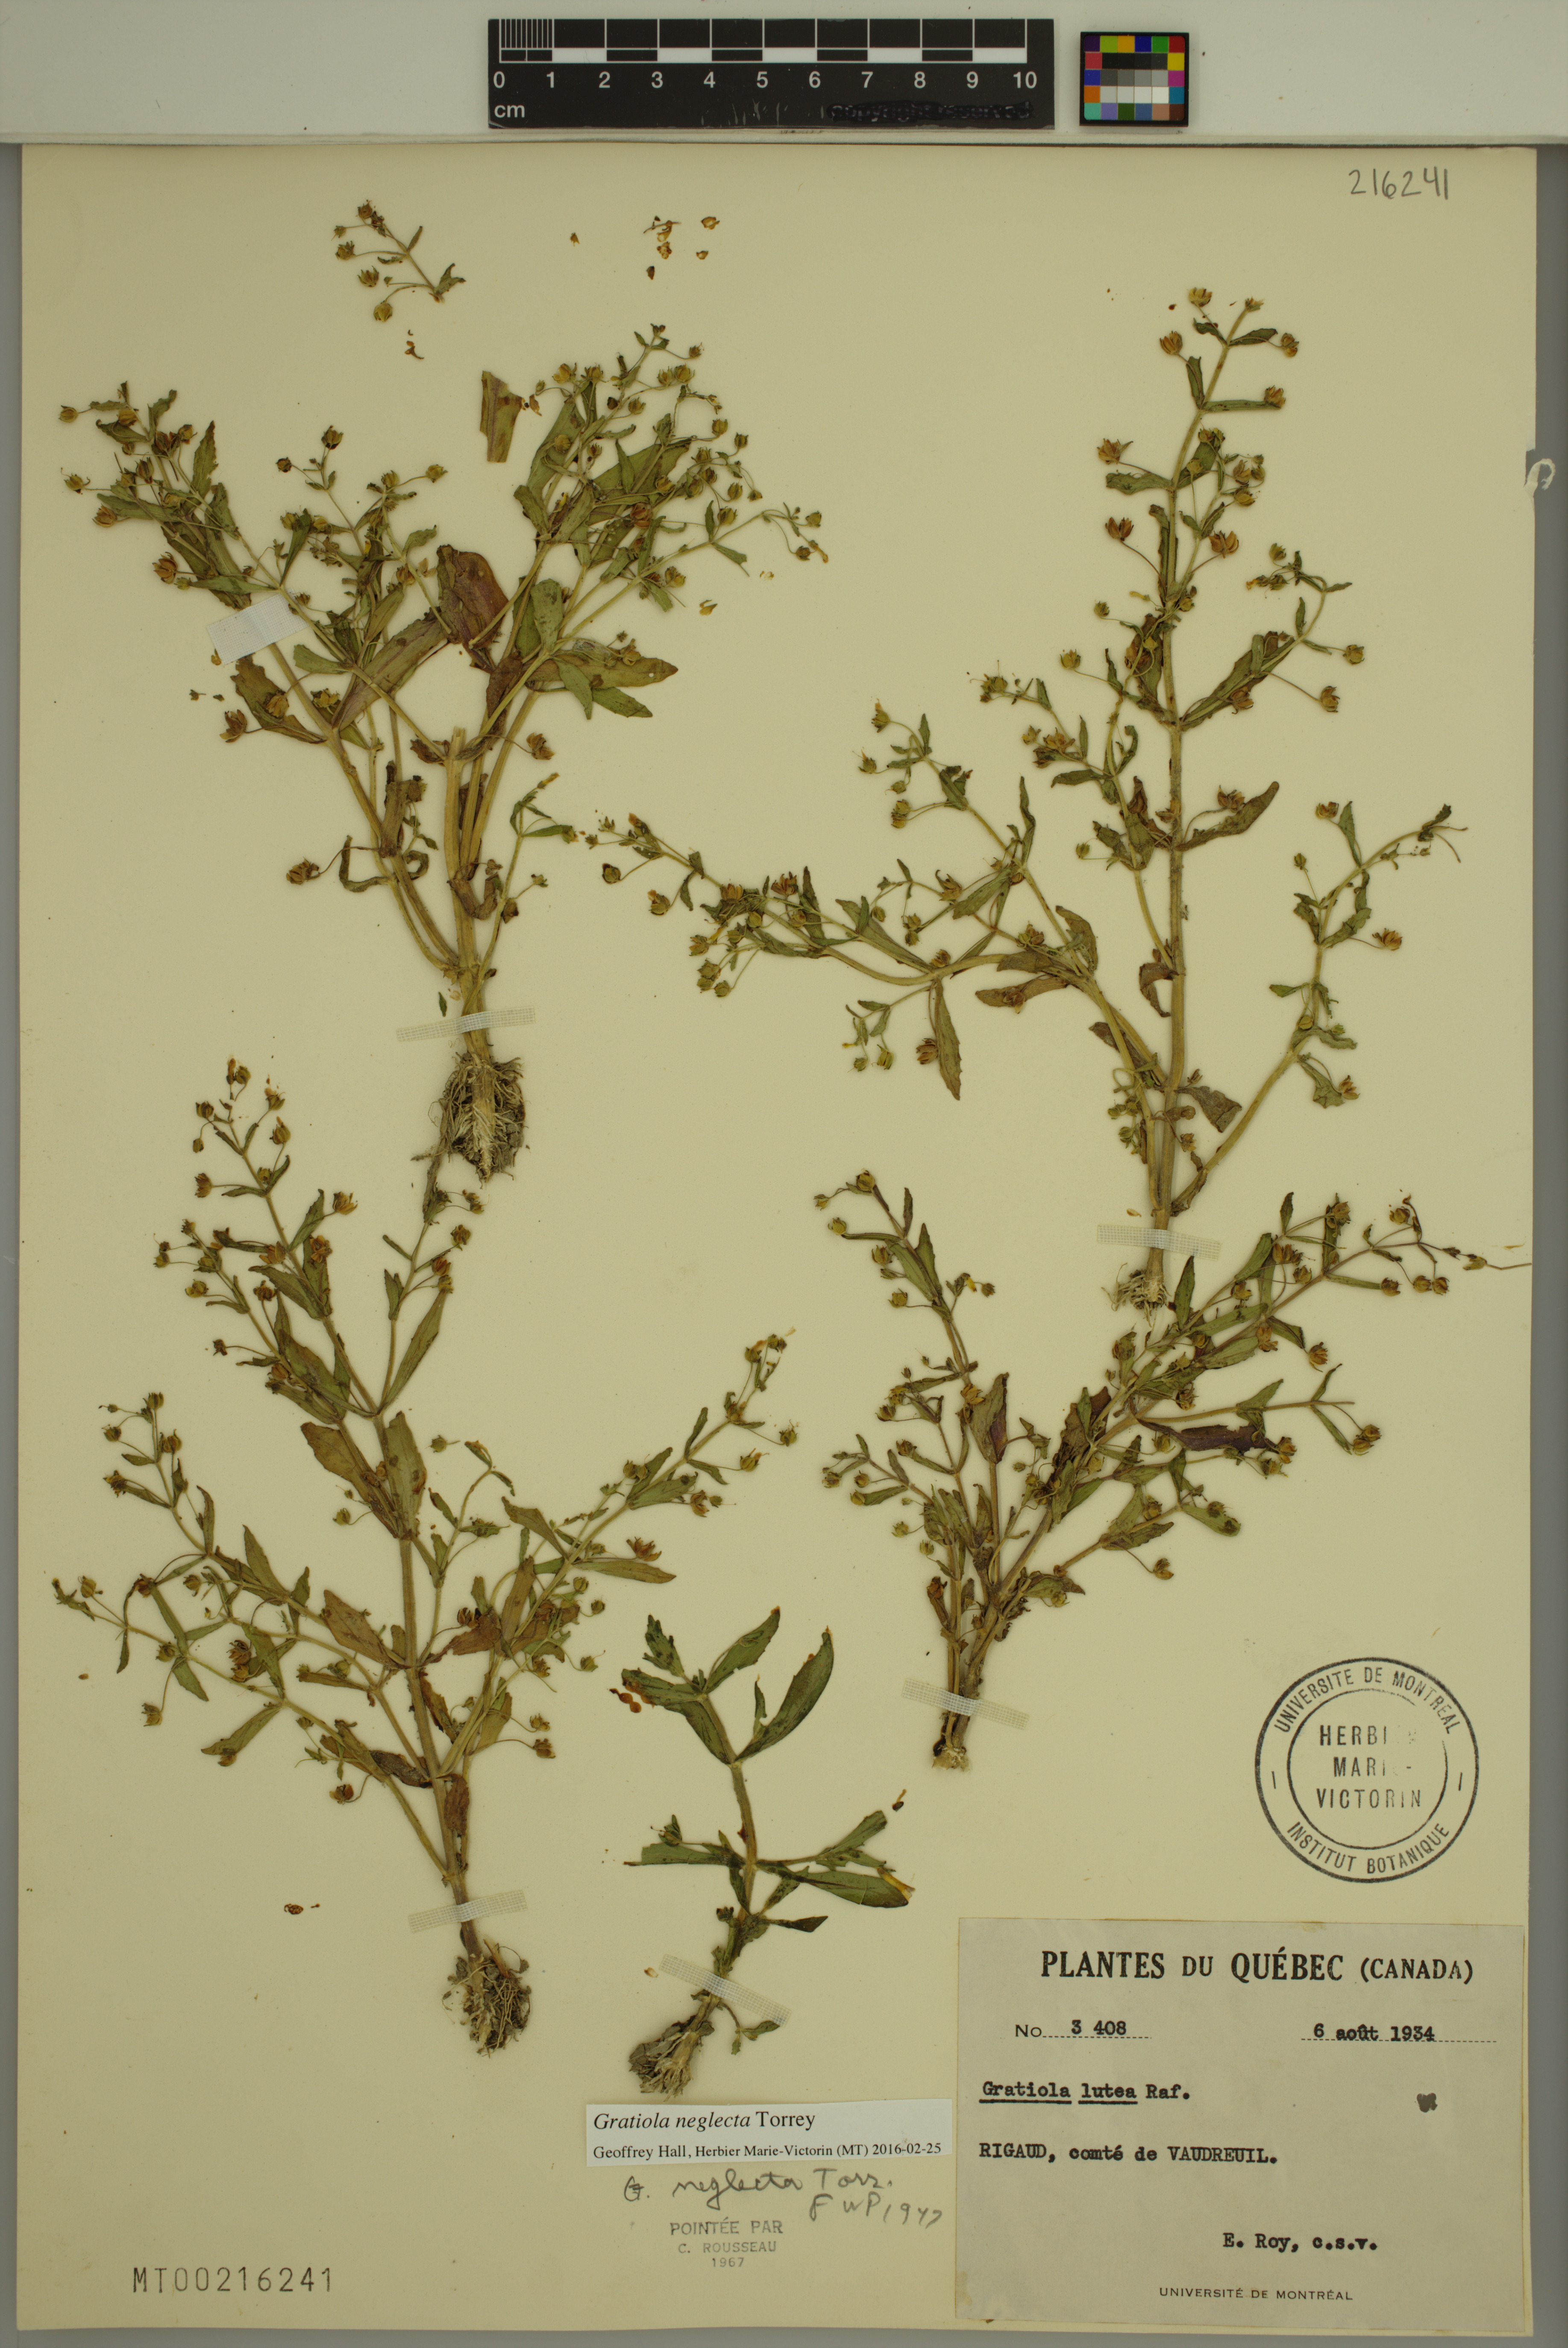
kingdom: Plantae
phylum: Tracheophyta
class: Magnoliopsida
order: Lamiales
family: Plantaginaceae
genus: Gratiola
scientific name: Gratiola neglecta
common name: American hedge-hyssop
